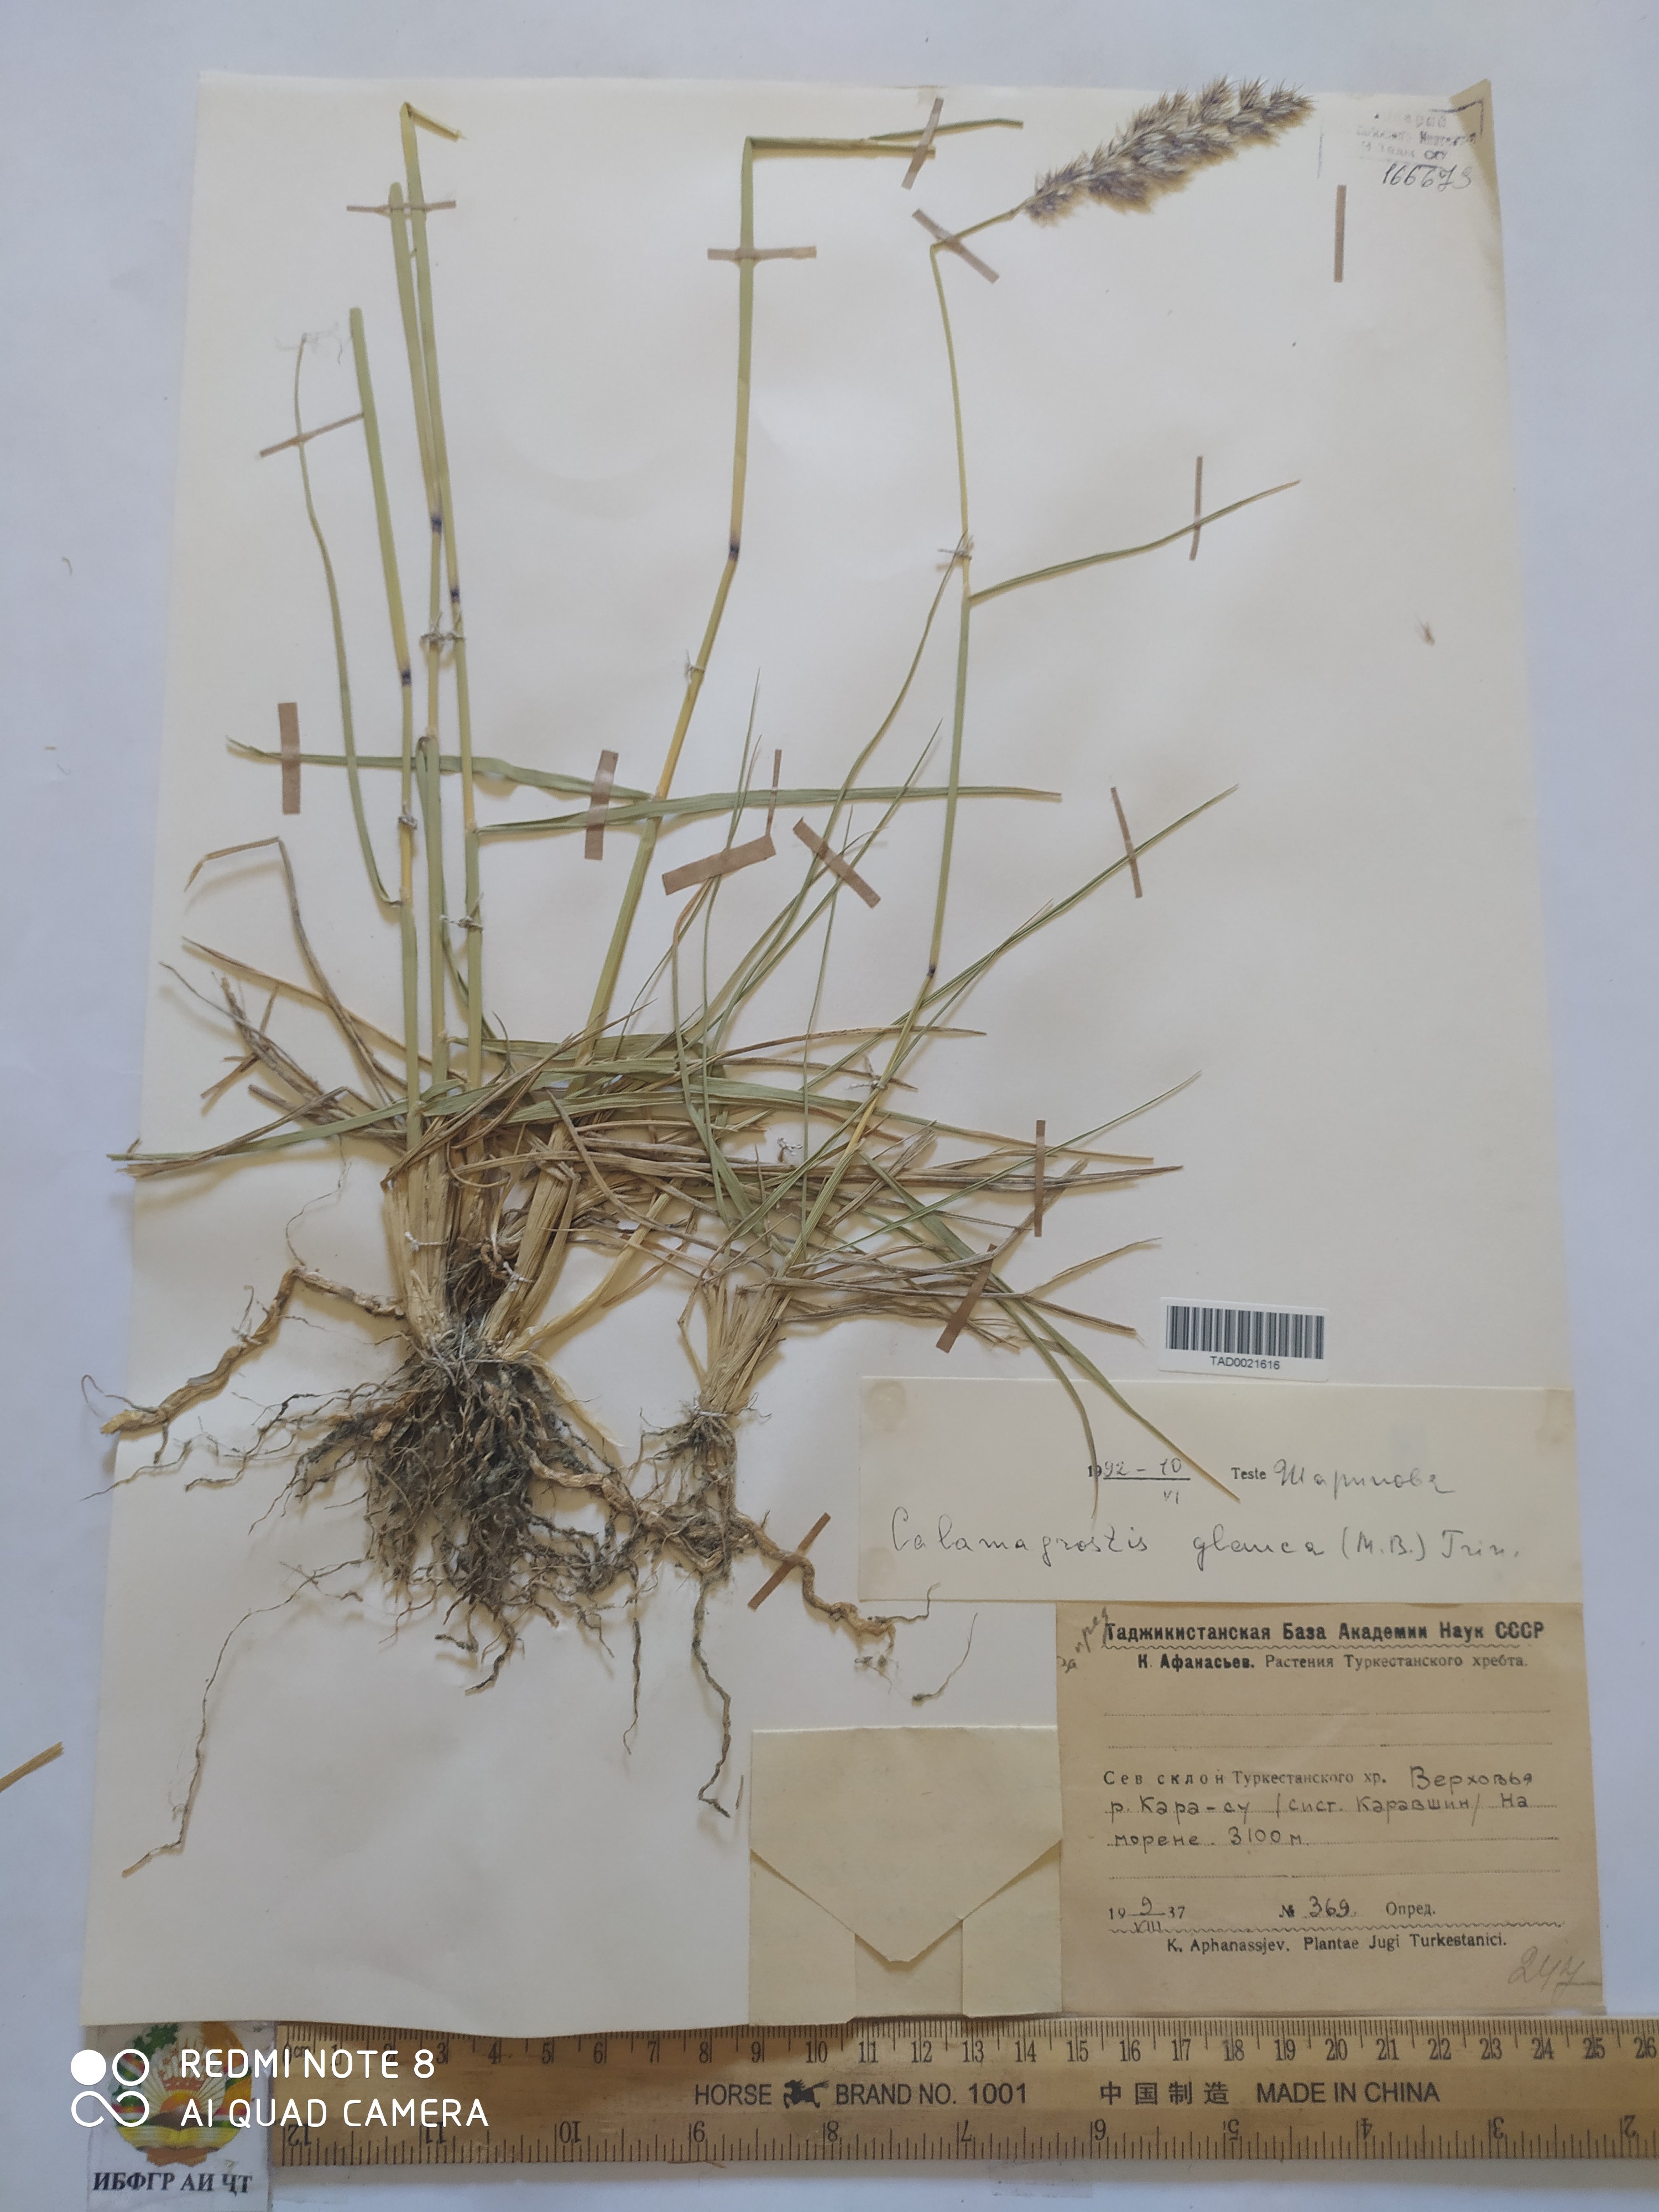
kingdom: Plantae
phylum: Tracheophyta
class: Liliopsida
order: Poales
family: Poaceae
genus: Calamagrostis
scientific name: Calamagrostis pseudophragmites
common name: Coastal small-reed
